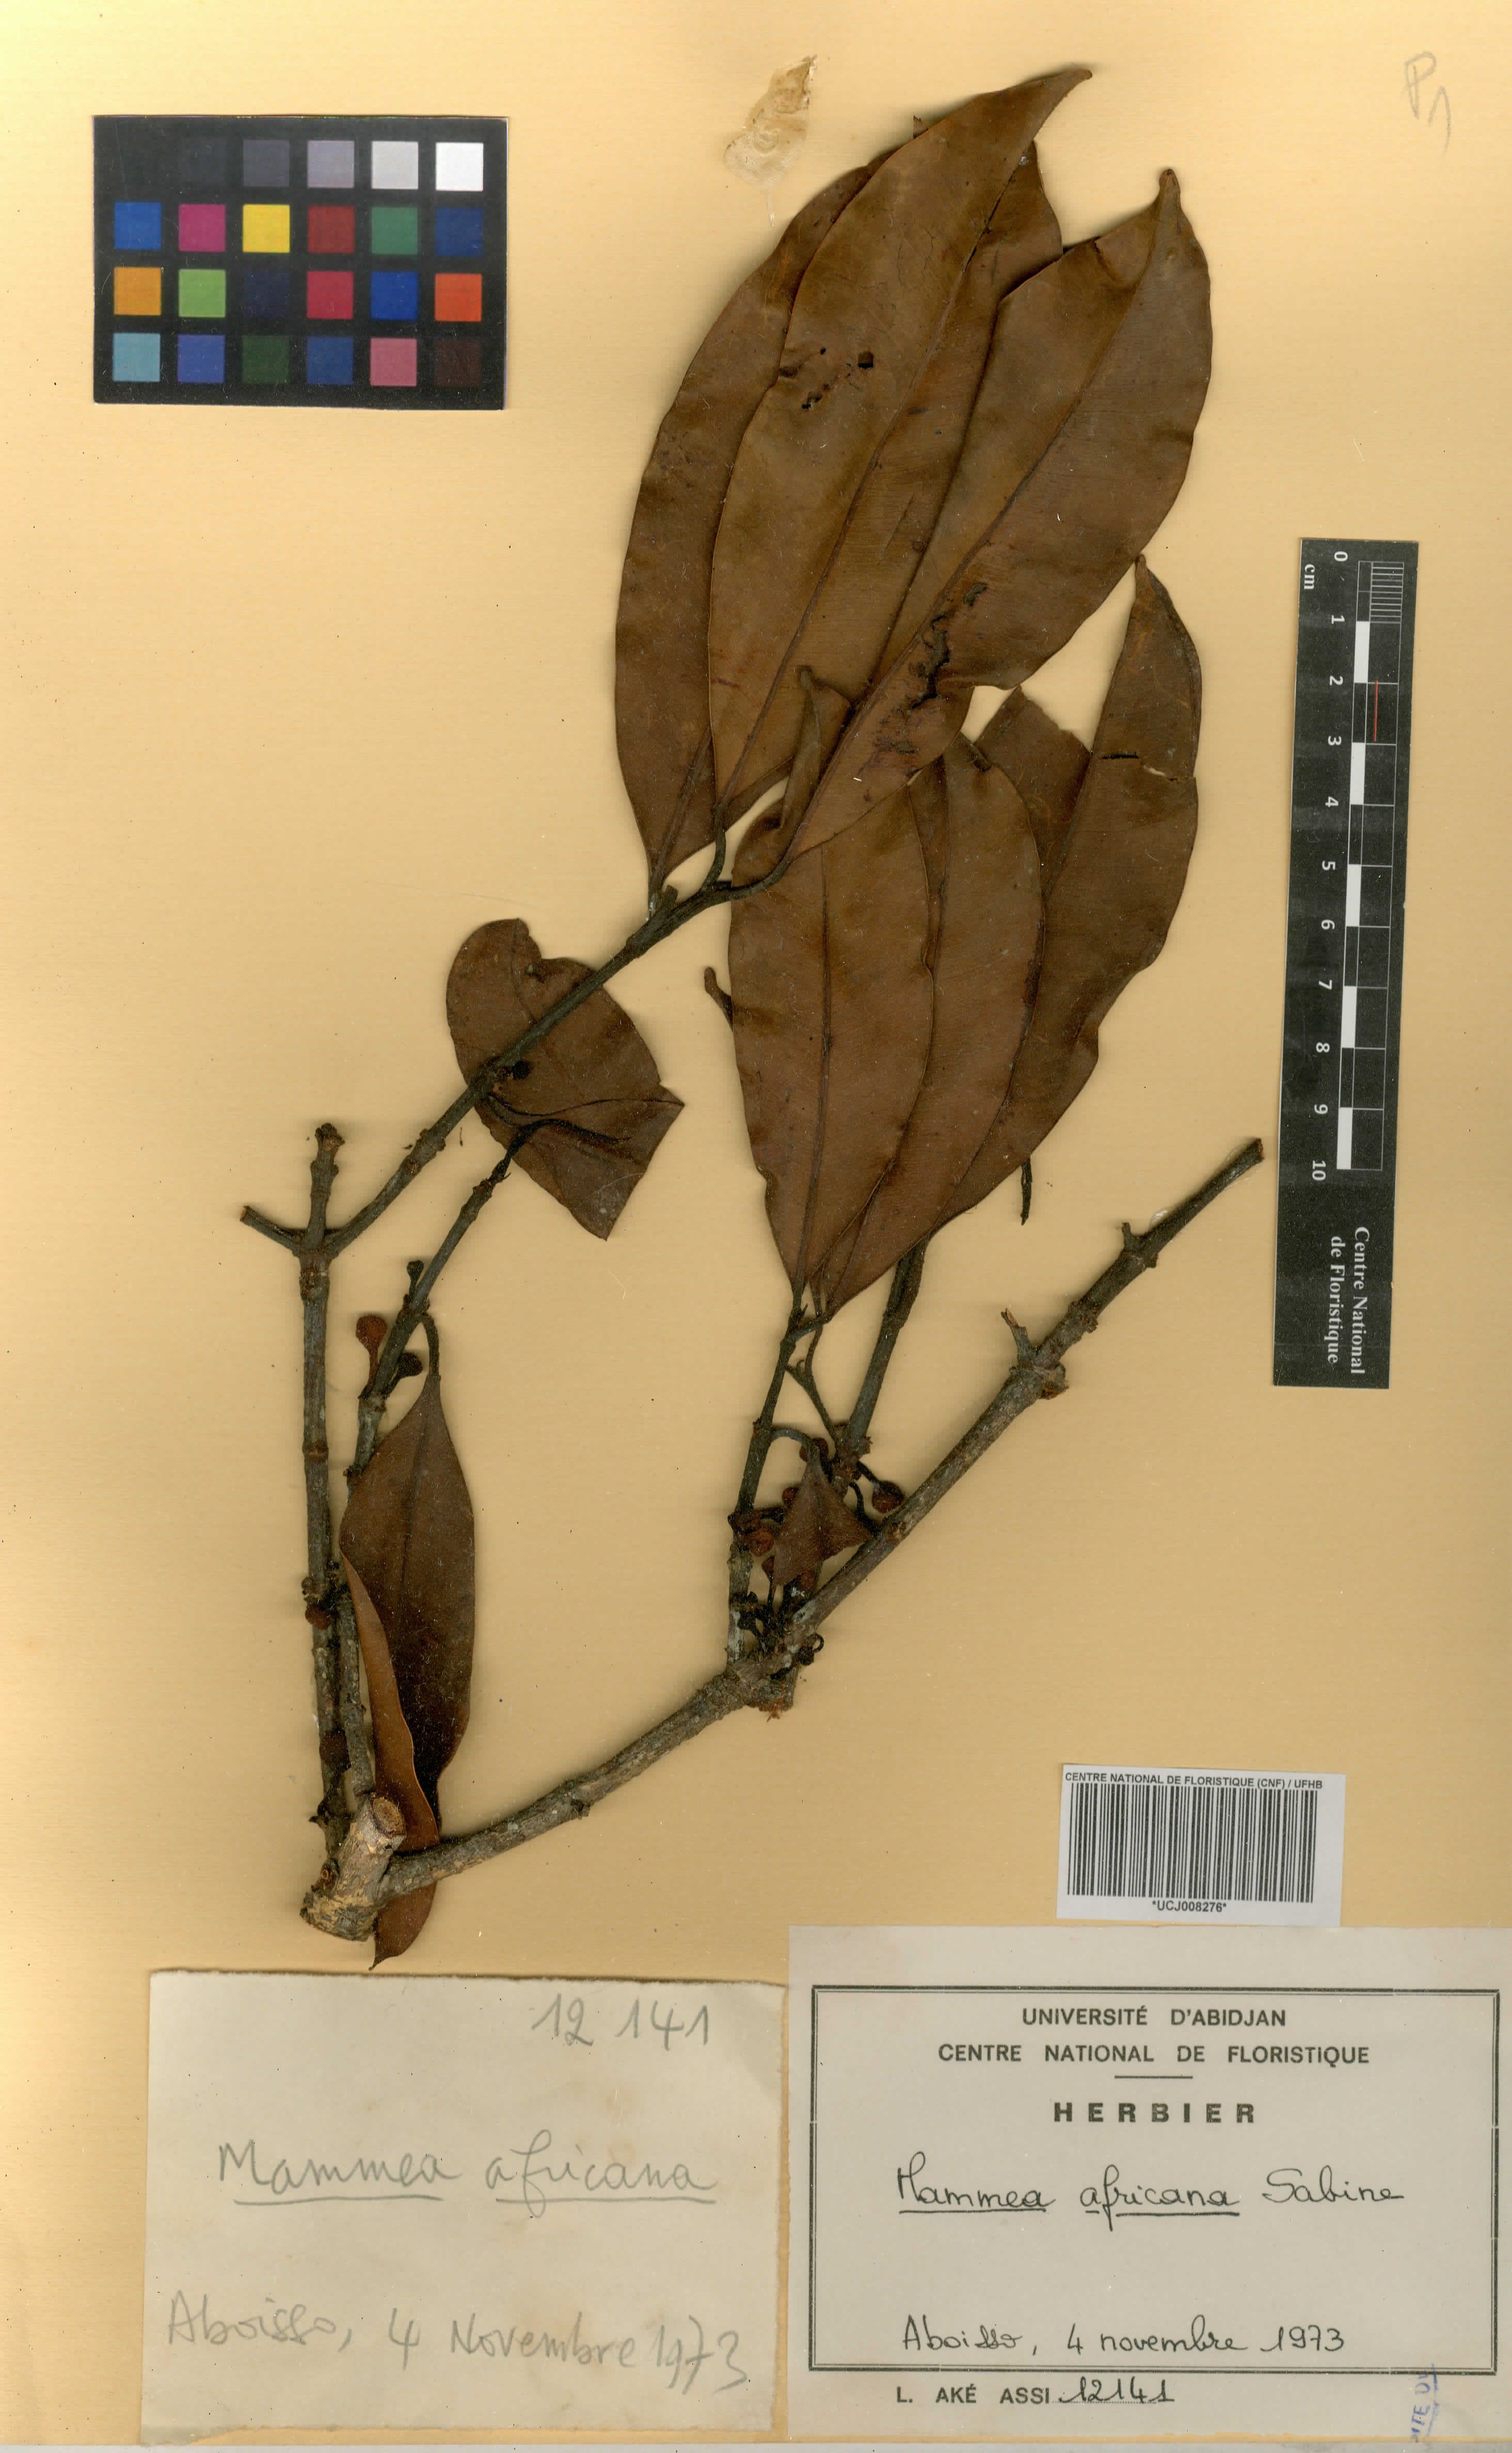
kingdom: Plantae
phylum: Tracheophyta
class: Magnoliopsida
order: Malpighiales
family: Clusiaceae
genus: Garcinia
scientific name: Garcinia
